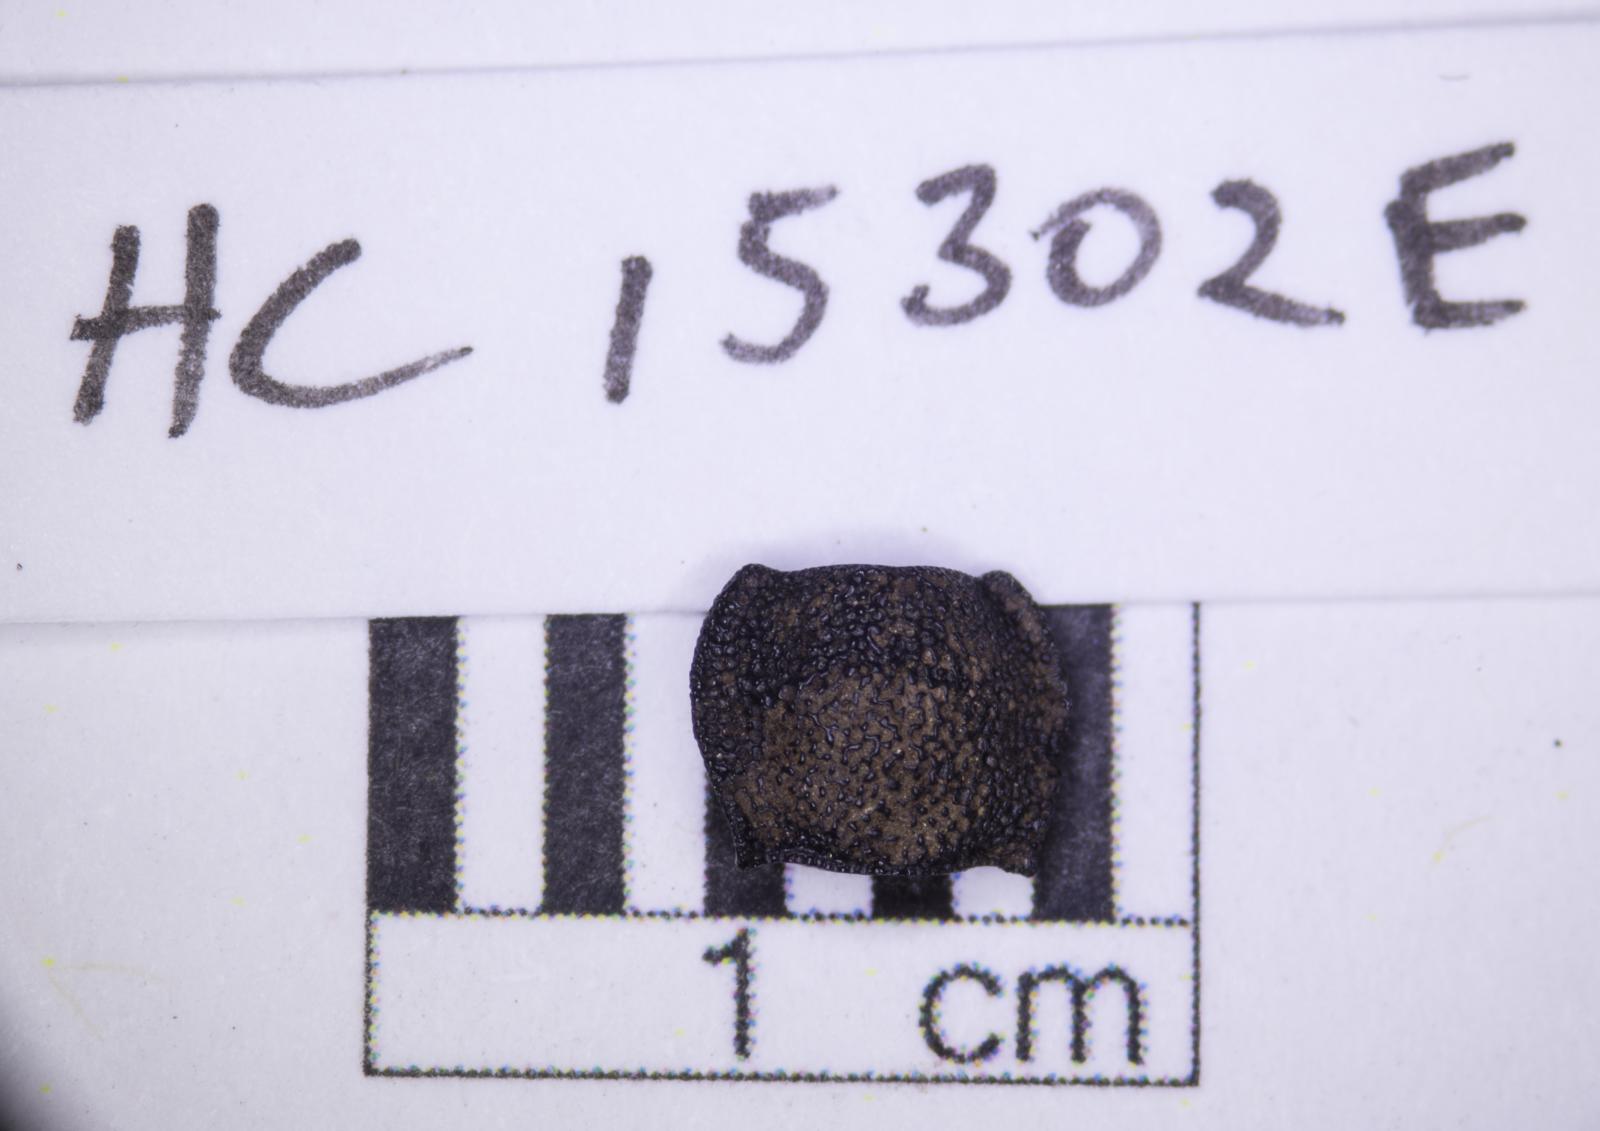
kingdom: Animalia
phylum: Arthropoda
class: Insecta
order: Coleoptera
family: Tenebrionidae
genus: Nyctoporis
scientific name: Nyctoporis carinata
